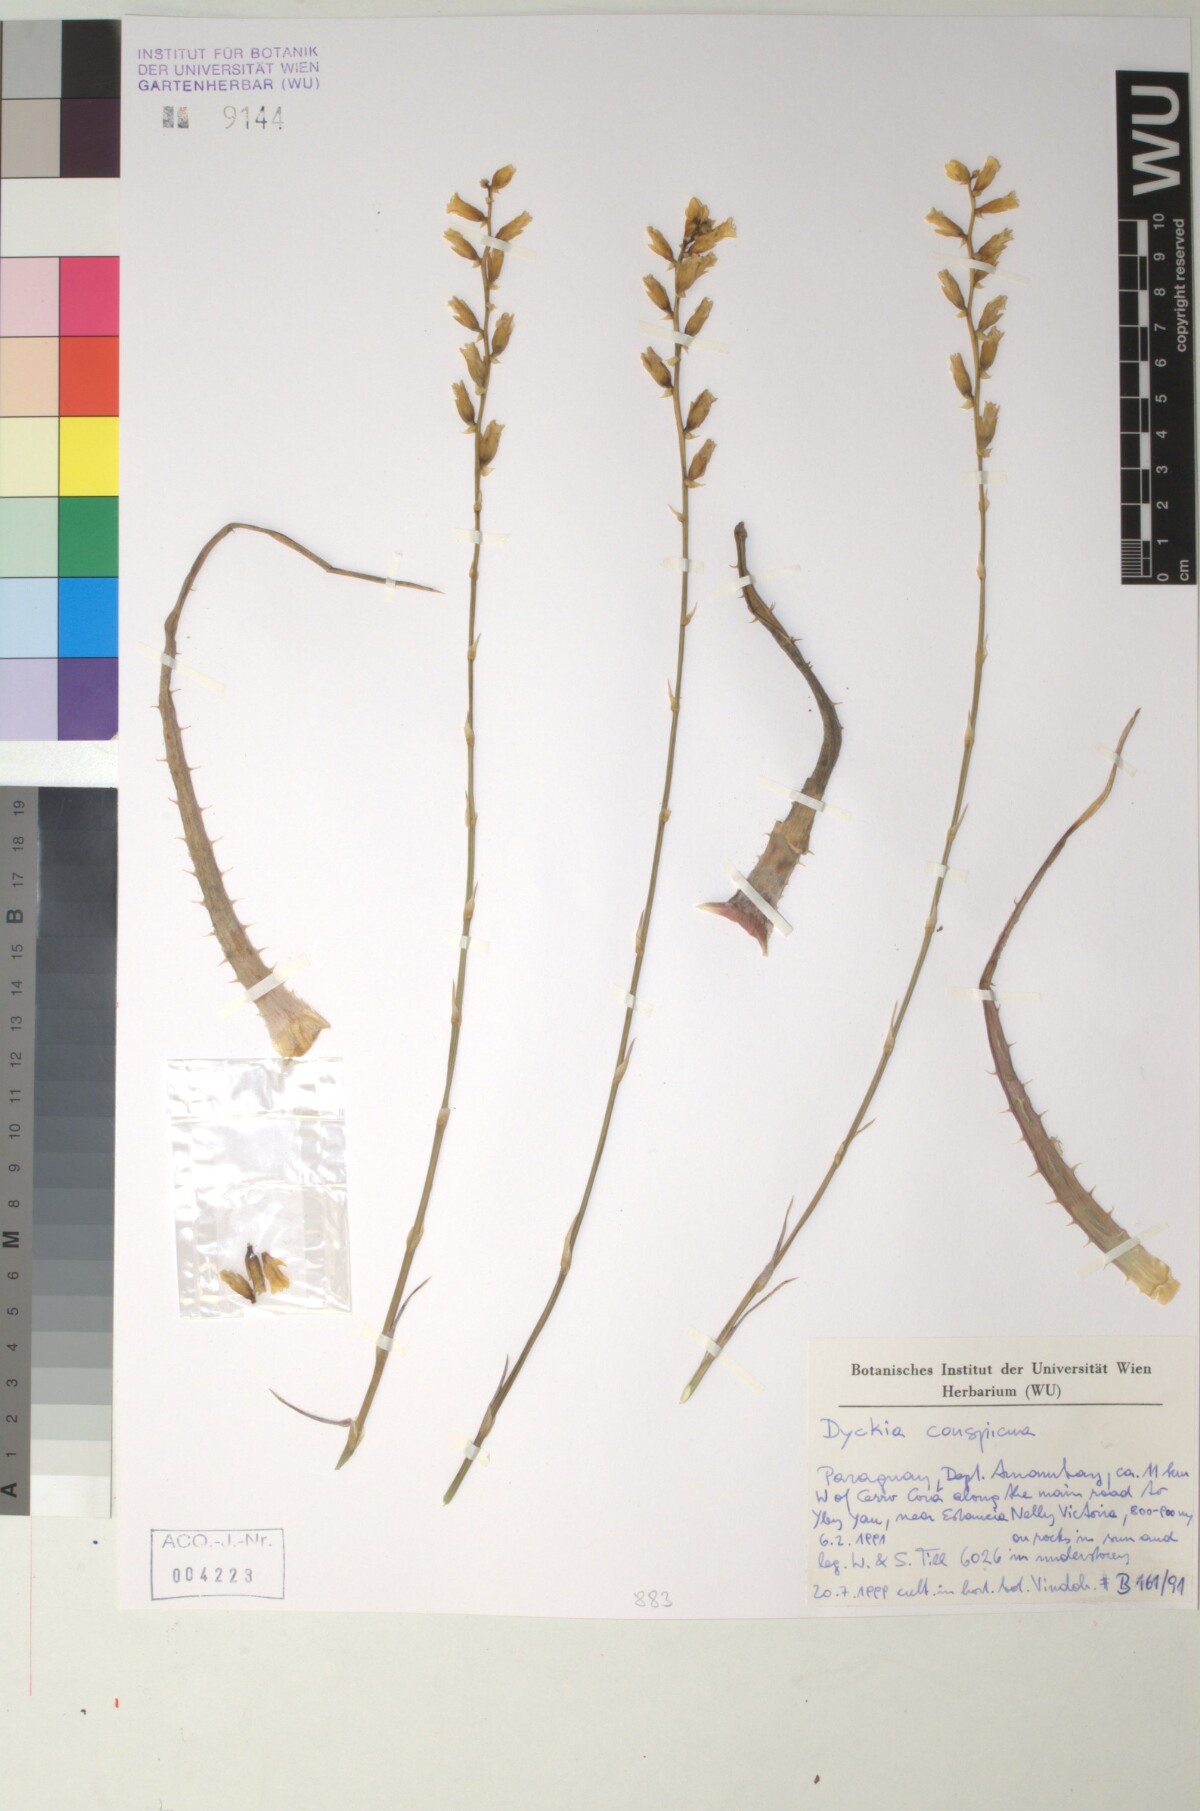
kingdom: Plantae
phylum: Tracheophyta
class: Liliopsida
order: Poales
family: Bromeliaceae
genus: Dyckia
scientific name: Dyckia leptostachya
